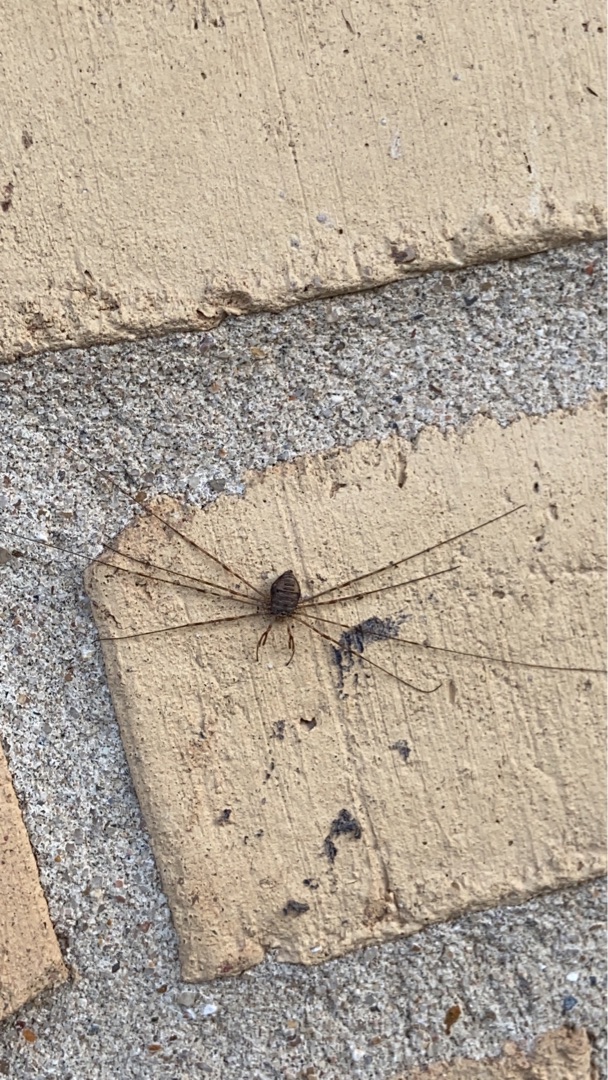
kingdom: Animalia
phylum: Arthropoda
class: Arachnida
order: Opiliones
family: Phalangiidae
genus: Dicranopalpus
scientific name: Dicranopalpus ramosus
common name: Gaffelmejer
